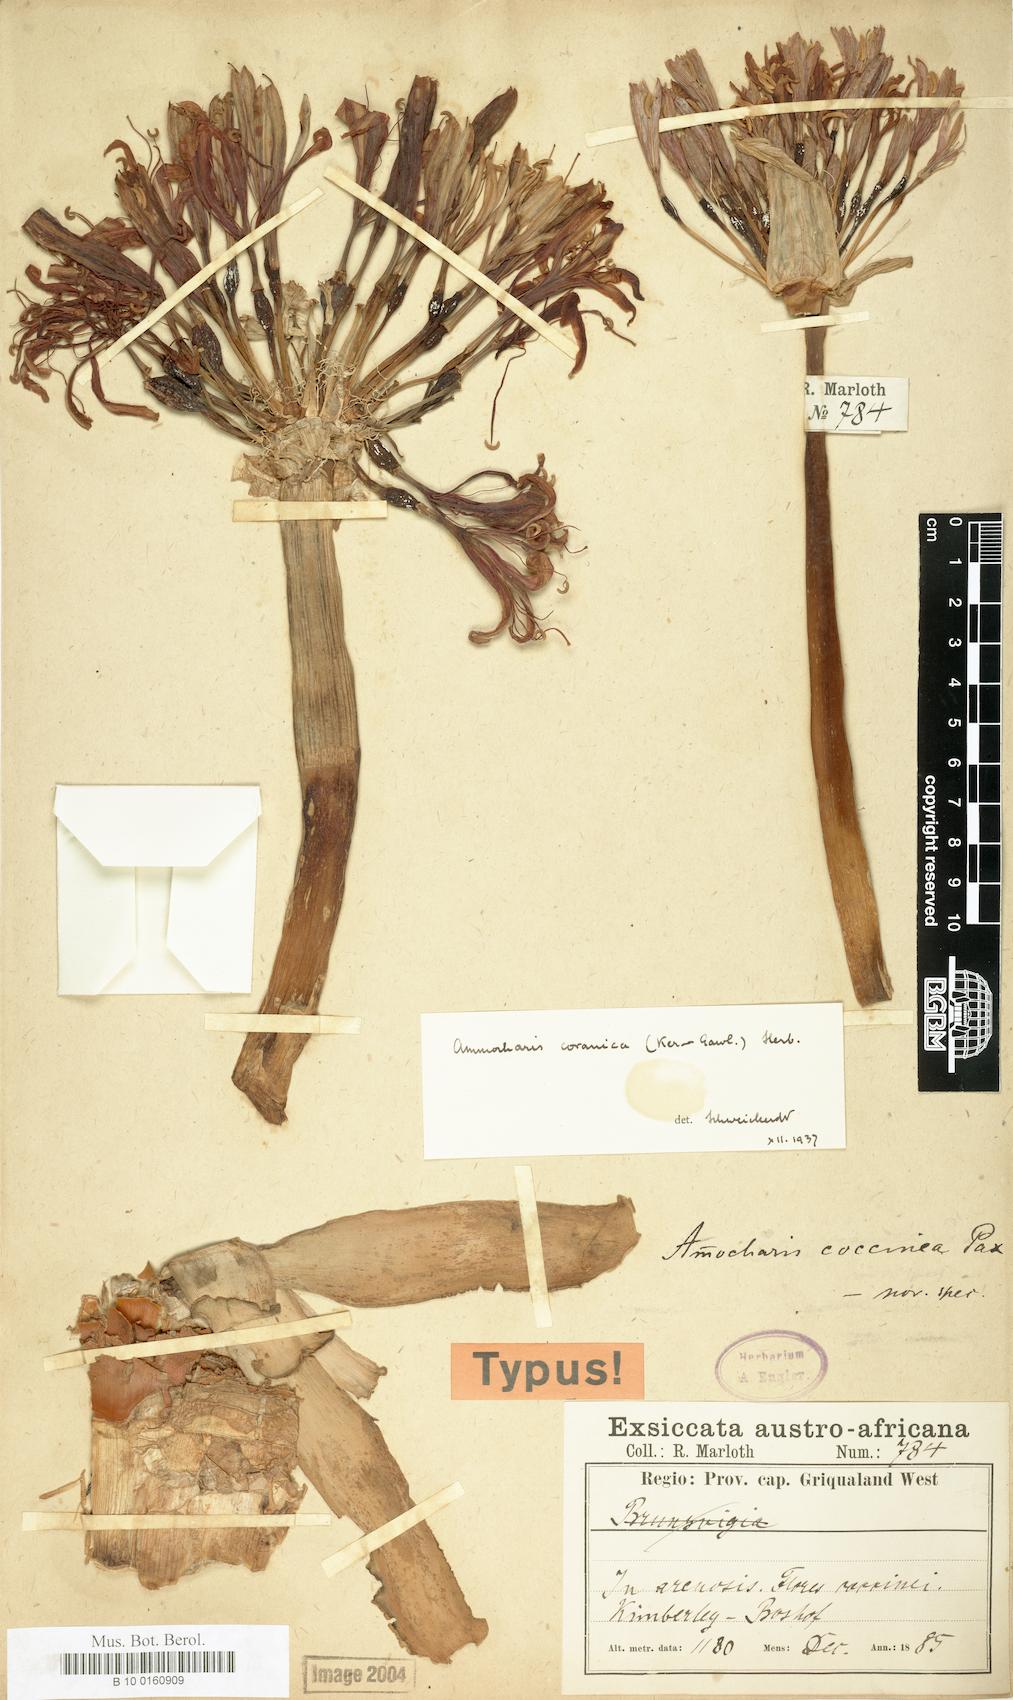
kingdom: Plantae
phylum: Tracheophyta
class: Liliopsida
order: Asparagales
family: Amaryllidaceae
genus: Ammocharis
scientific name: Ammocharis coranica
